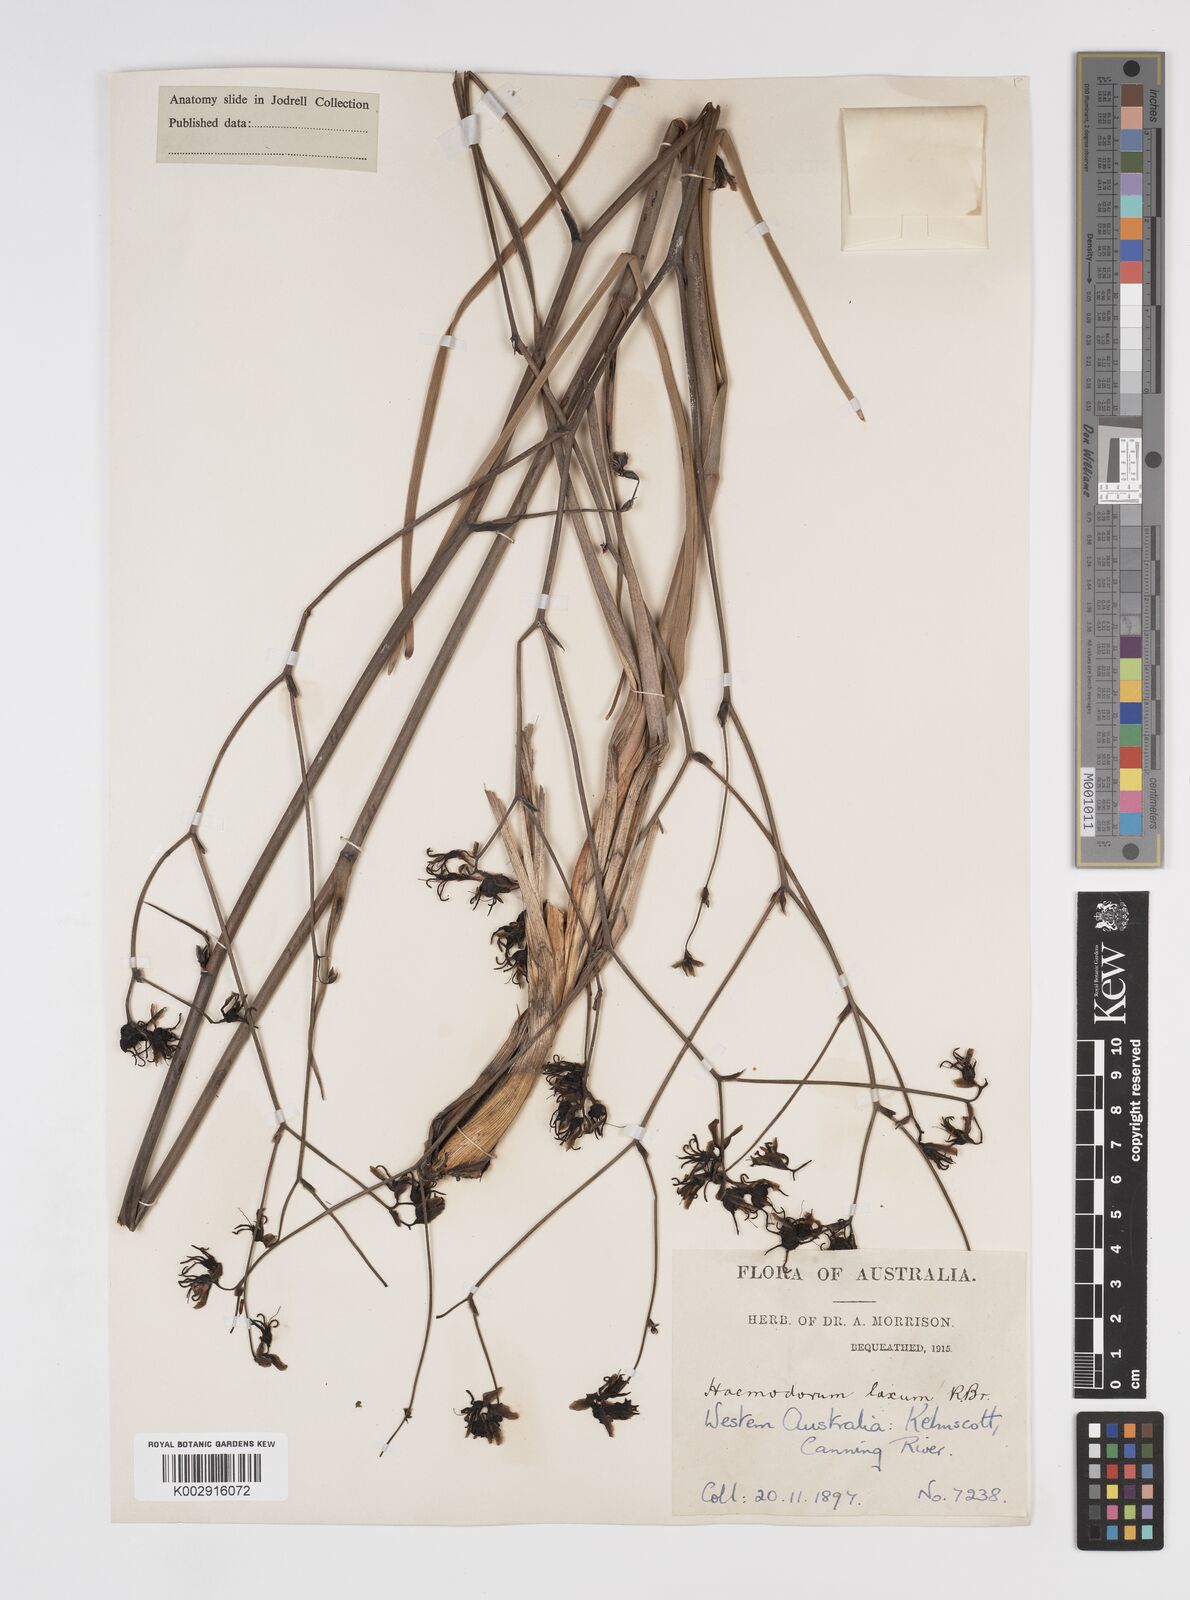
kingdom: Plantae
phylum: Tracheophyta
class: Liliopsida
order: Commelinales
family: Haemodoraceae
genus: Haemodorum
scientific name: Haemodorum laxum
